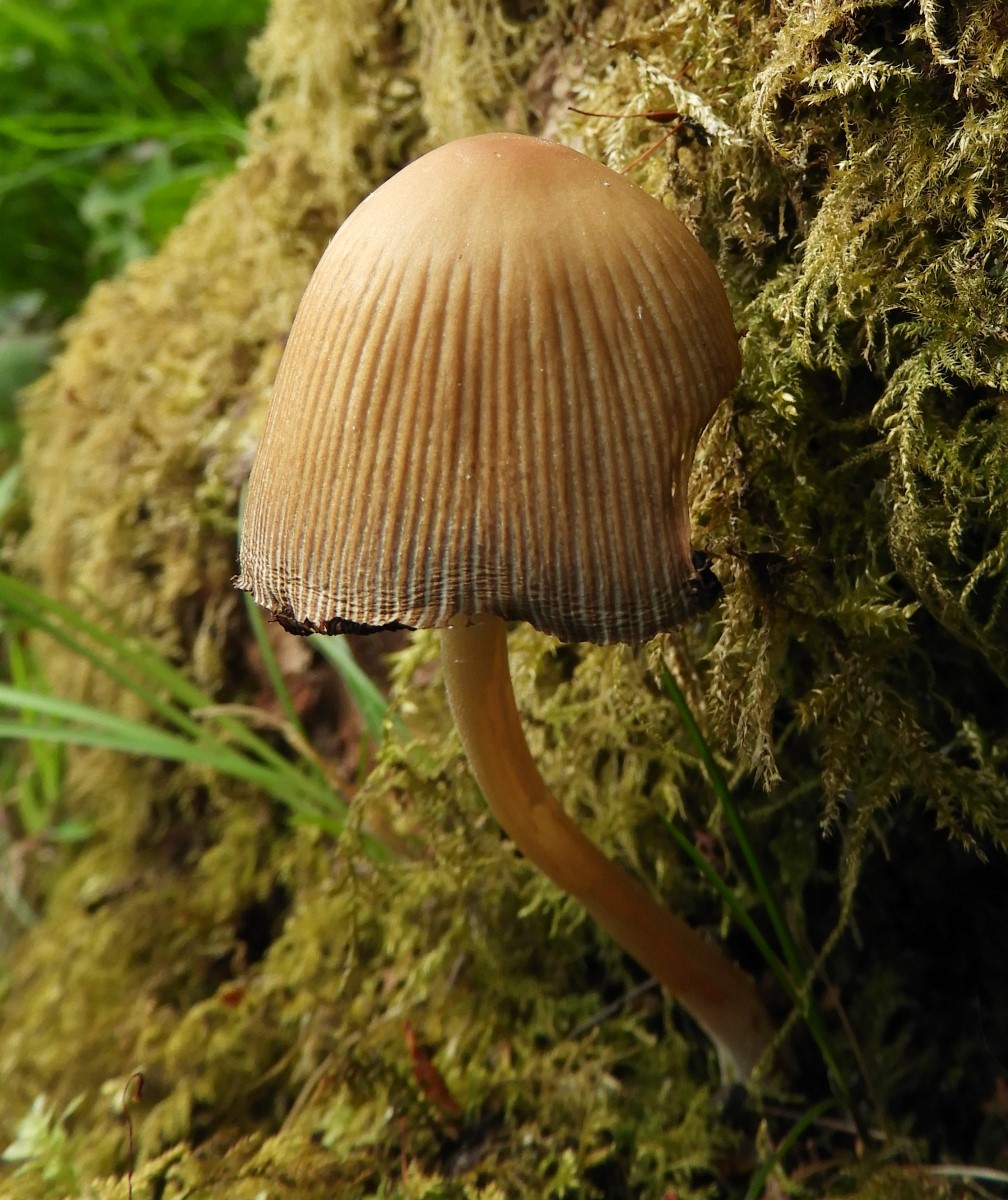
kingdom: Fungi
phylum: Basidiomycota
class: Agaricomycetes
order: Agaricales
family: Psathyrellaceae
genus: Coprinellus
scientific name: Coprinellus
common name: blækhat
